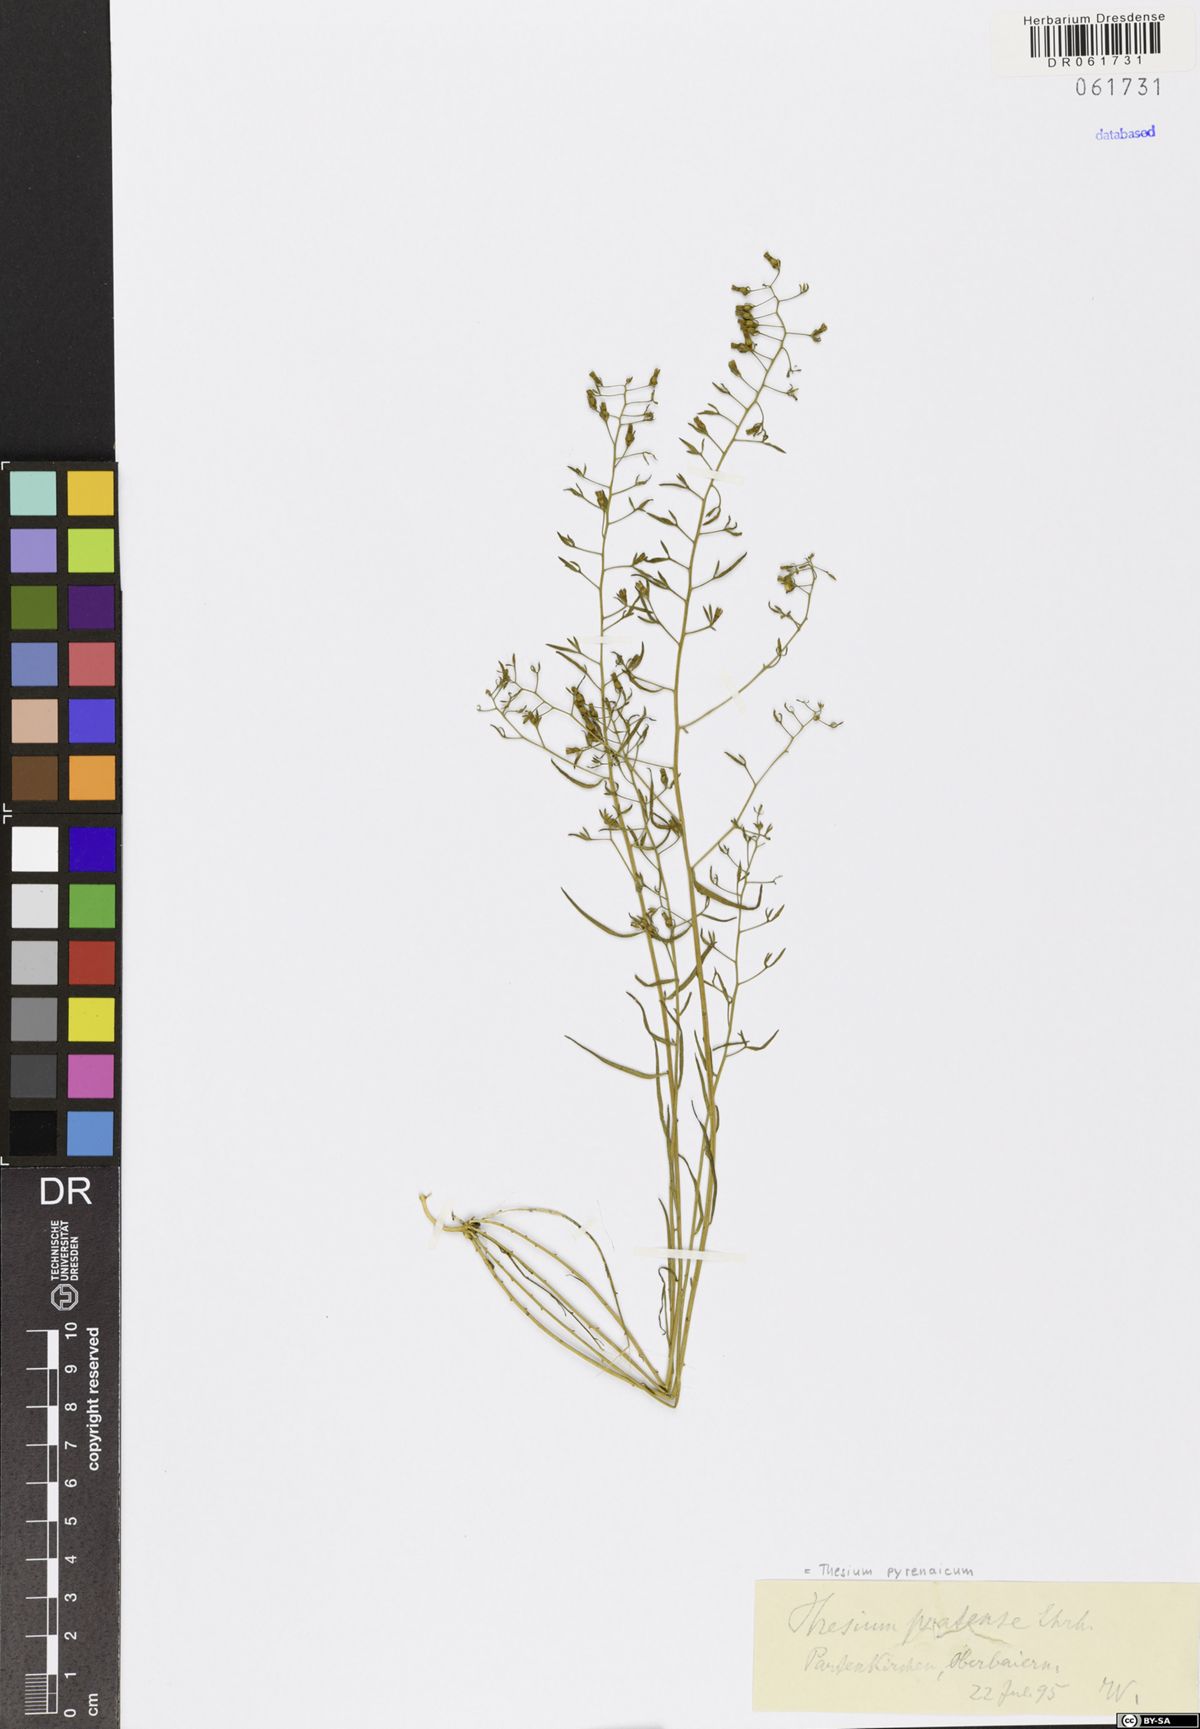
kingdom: Plantae
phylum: Tracheophyta
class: Magnoliopsida
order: Santalales
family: Thesiaceae
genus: Thesium
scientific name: Thesium pyrenaicum
